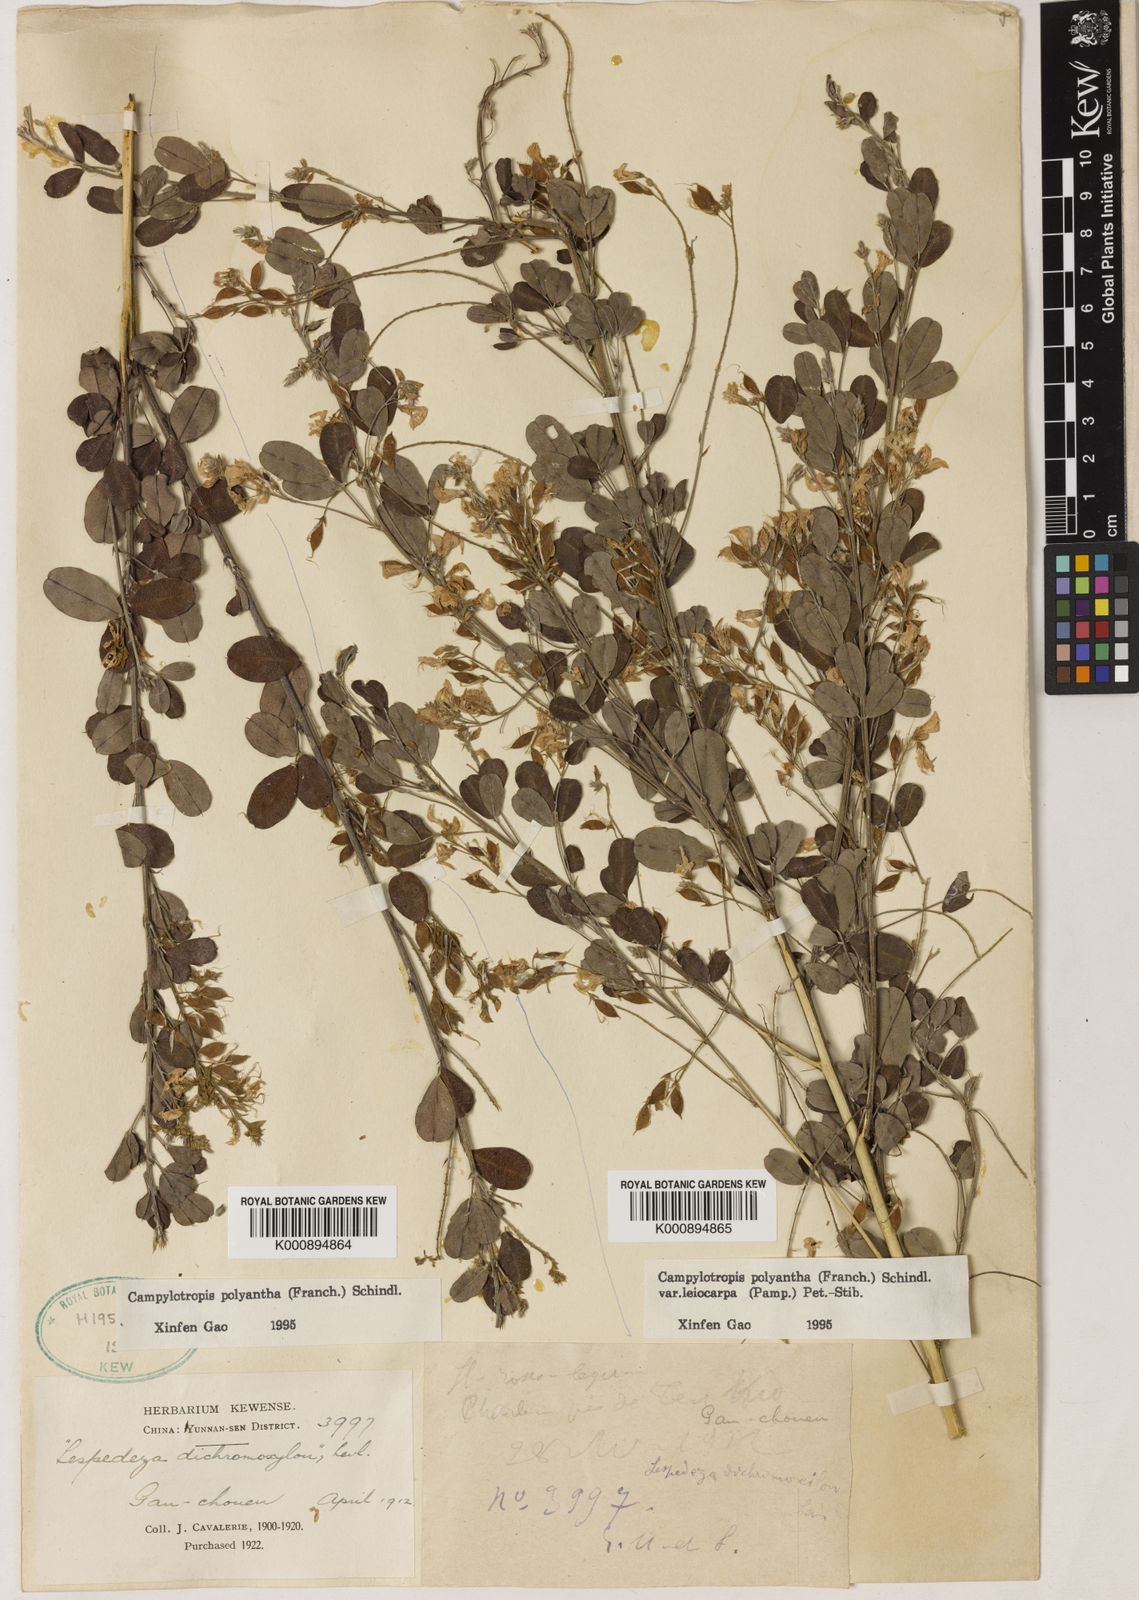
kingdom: Plantae
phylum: Tracheophyta
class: Magnoliopsida
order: Fabales
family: Fabaceae
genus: Campylotropis
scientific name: Campylotropis polyantha
